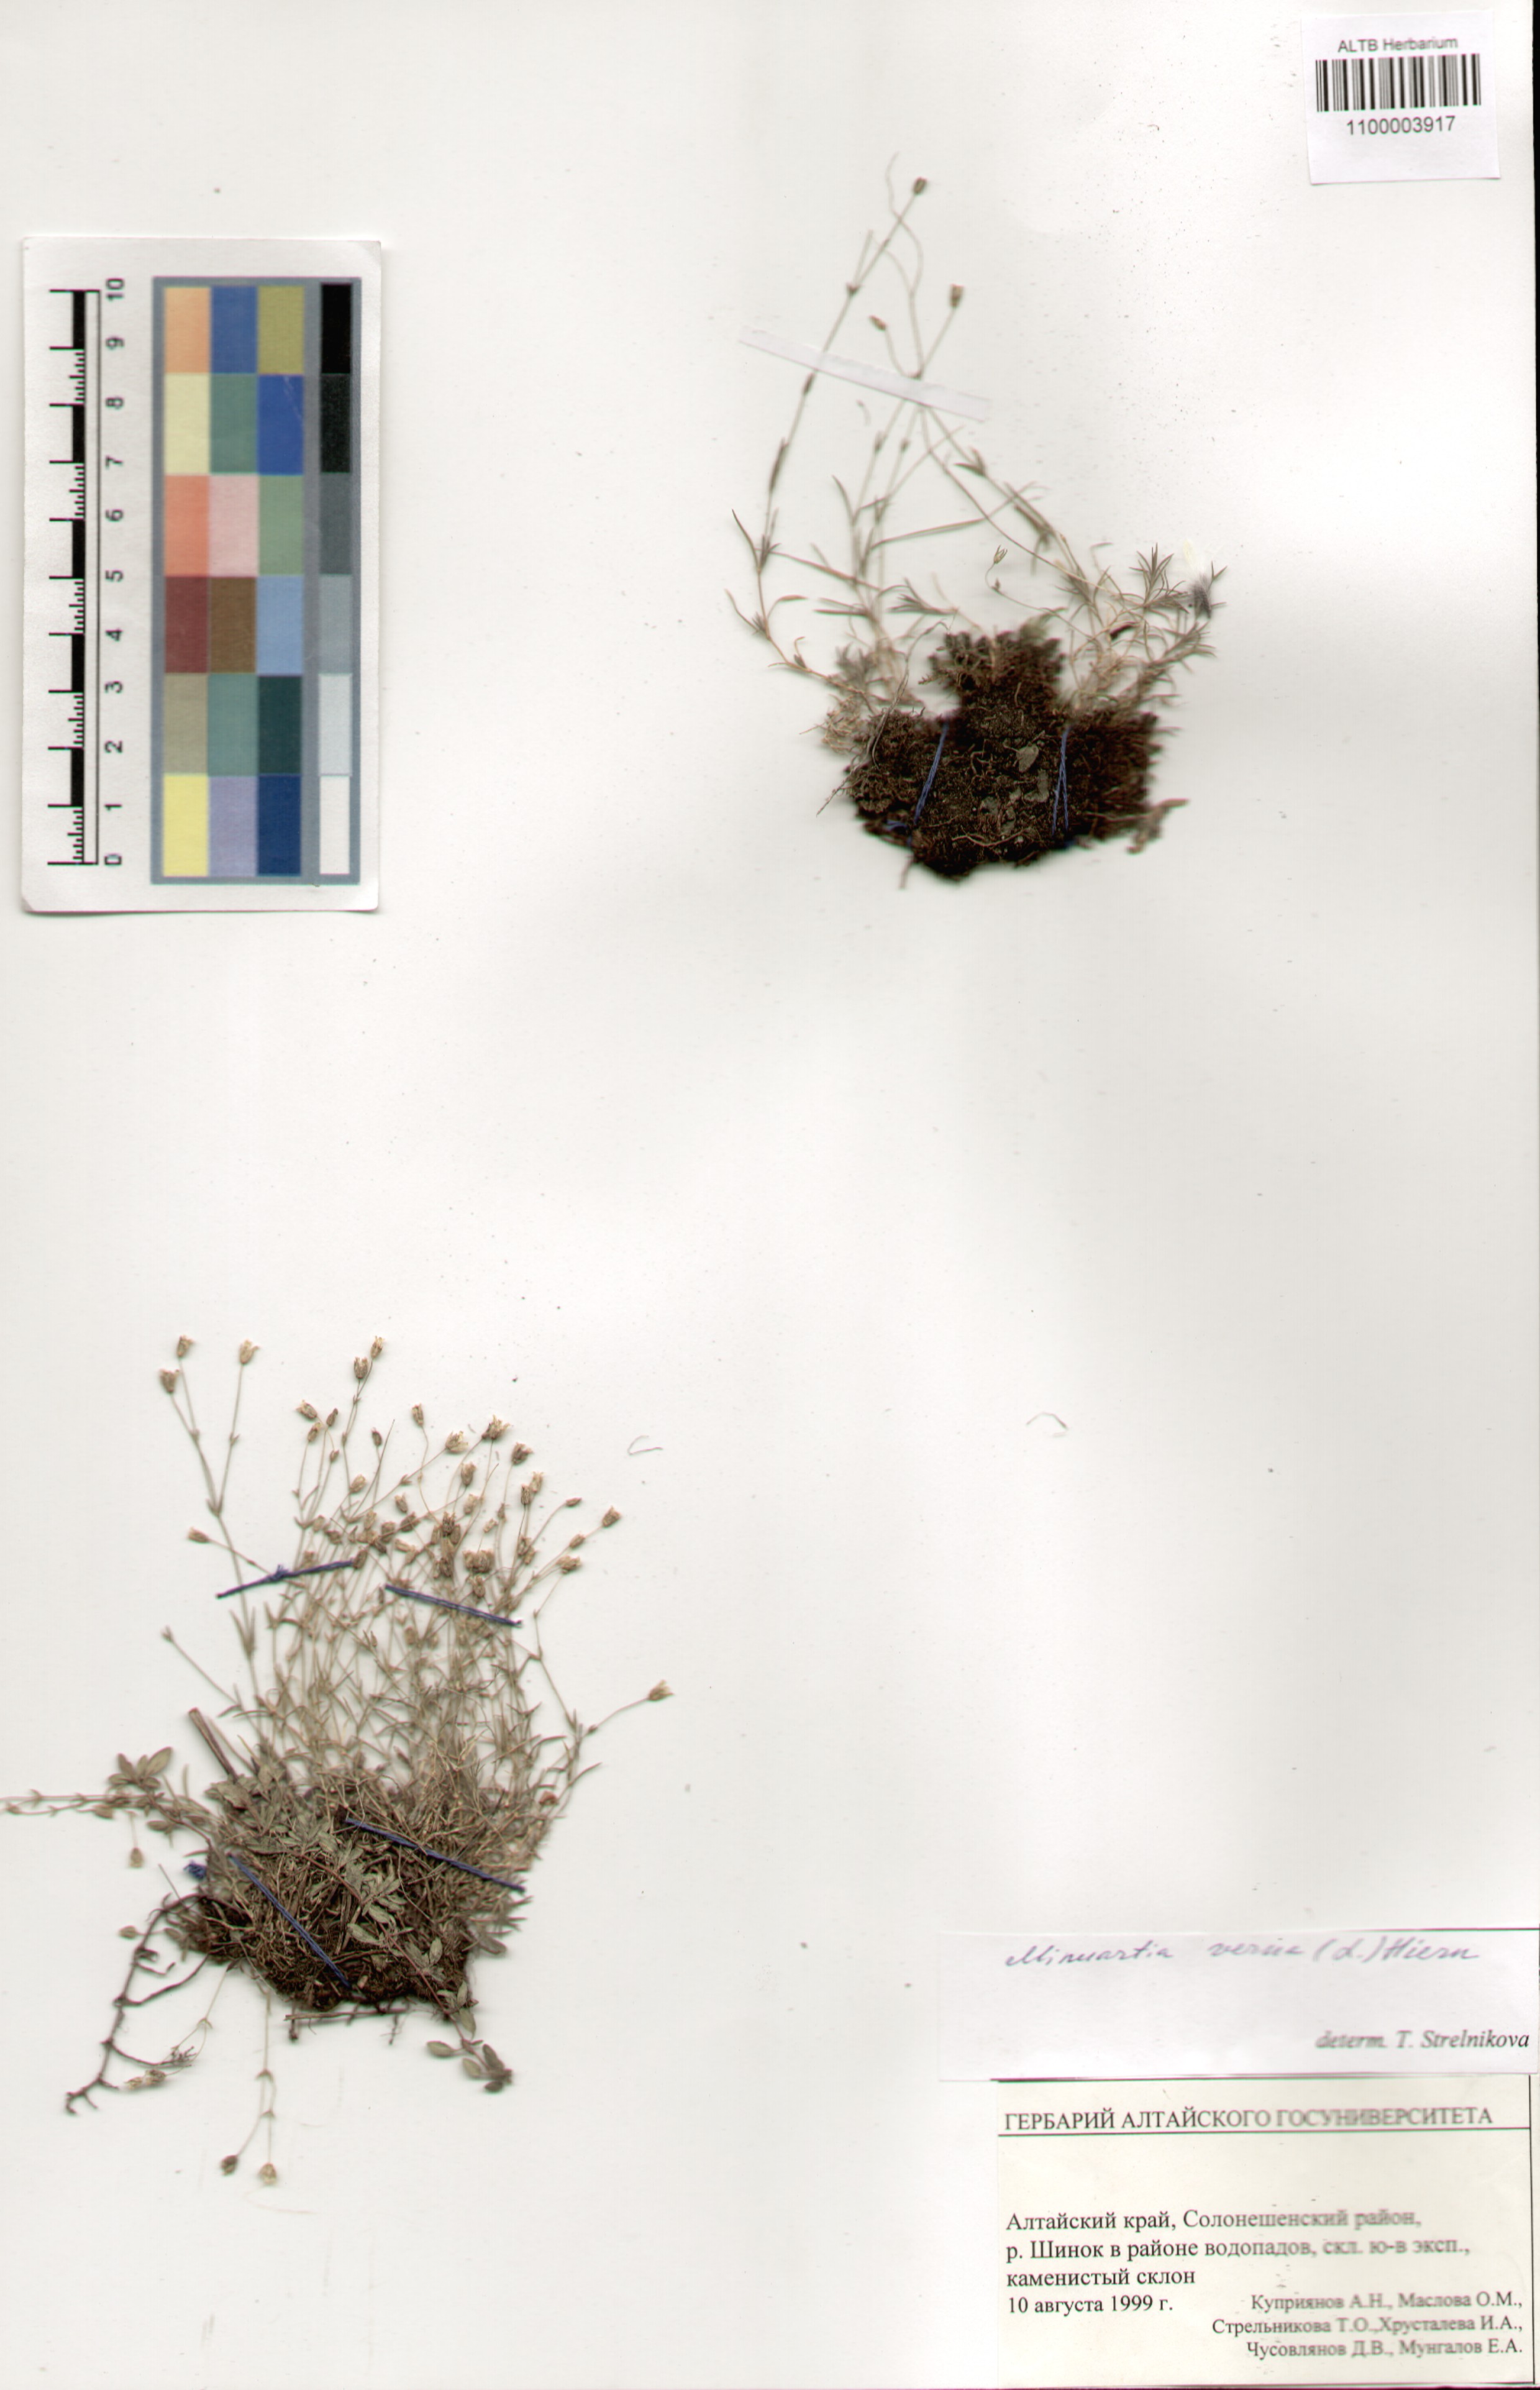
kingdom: Plantae
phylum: Tracheophyta
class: Magnoliopsida
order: Caryophyllales
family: Caryophyllaceae
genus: Sabulina
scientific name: Sabulina verna
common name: Spring sandwort
